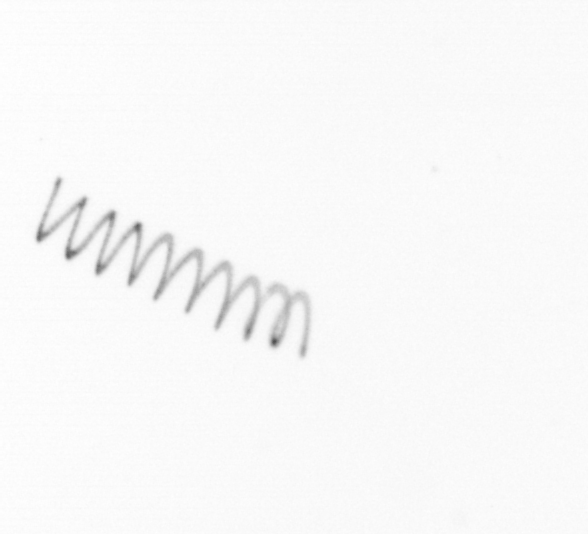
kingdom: Chromista
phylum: Ochrophyta
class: Bacillariophyceae
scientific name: Bacillariophyceae
